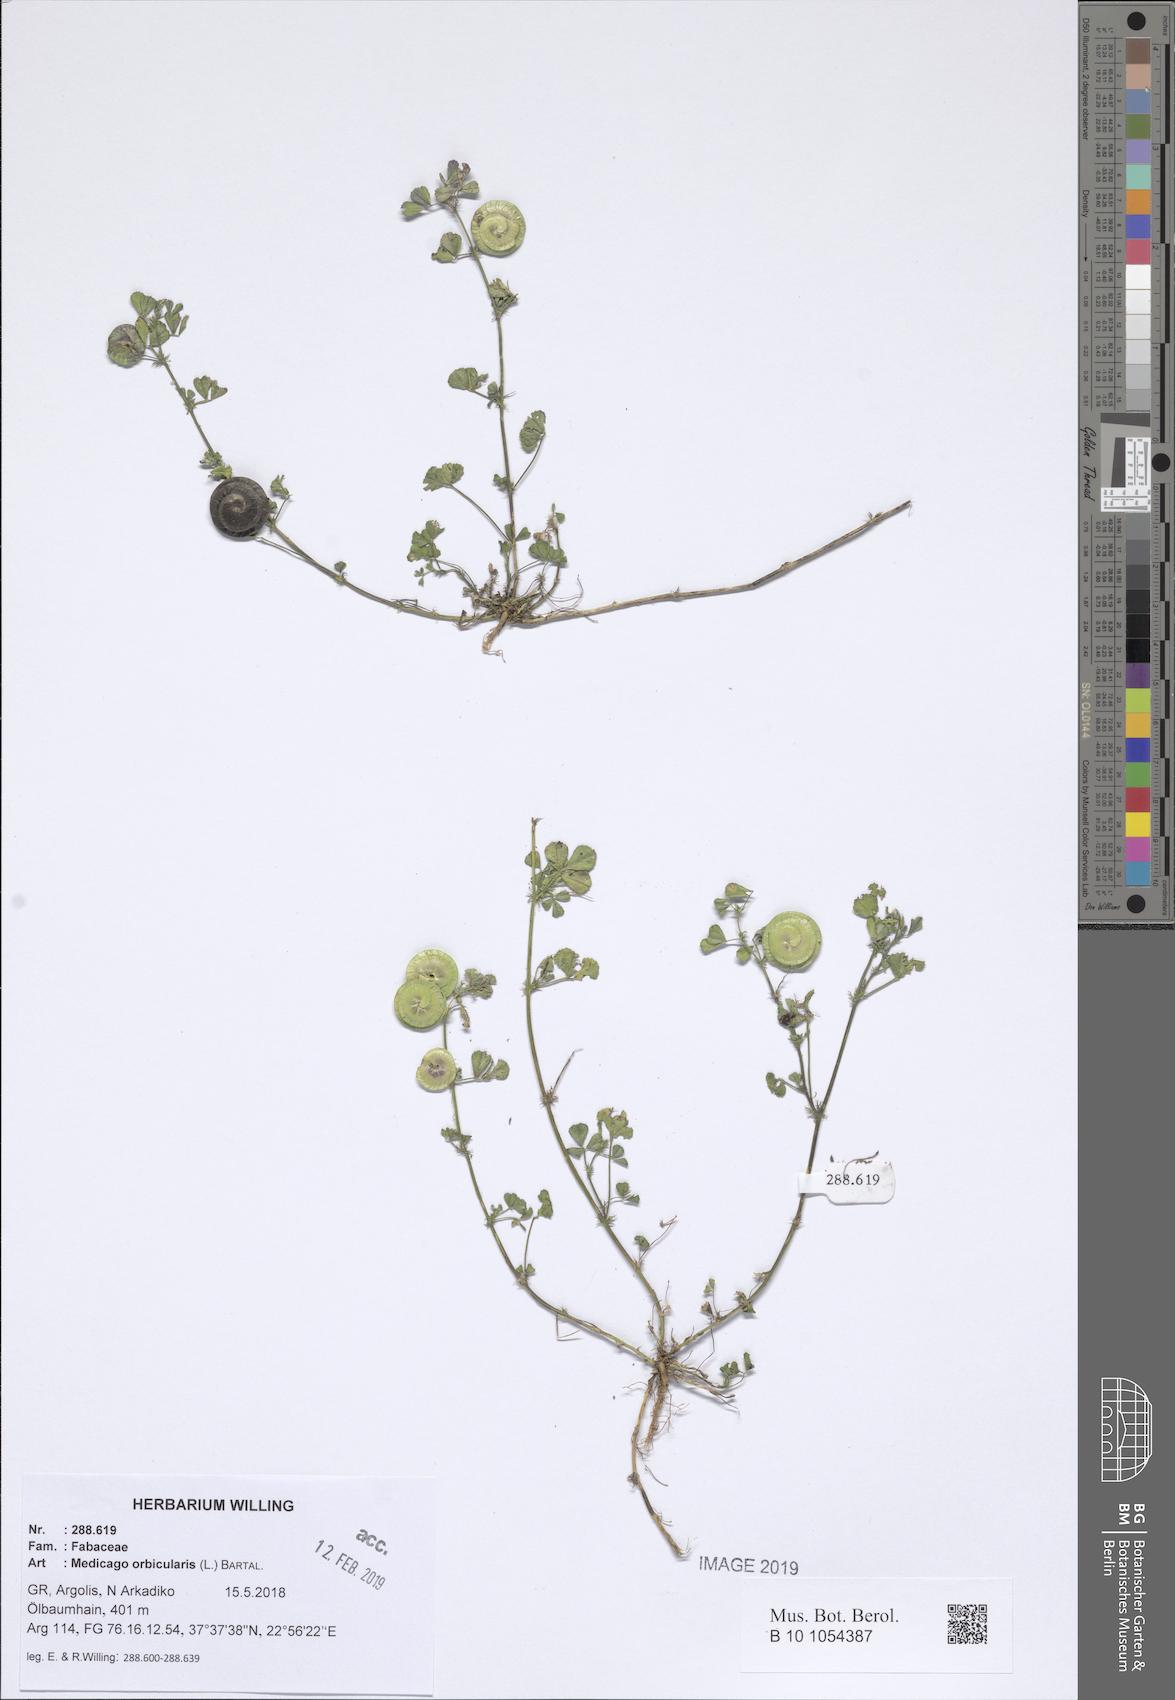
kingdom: Plantae
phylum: Tracheophyta
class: Magnoliopsida
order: Fabales
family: Fabaceae
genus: Medicago
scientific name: Medicago orbicularis
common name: Button medick
